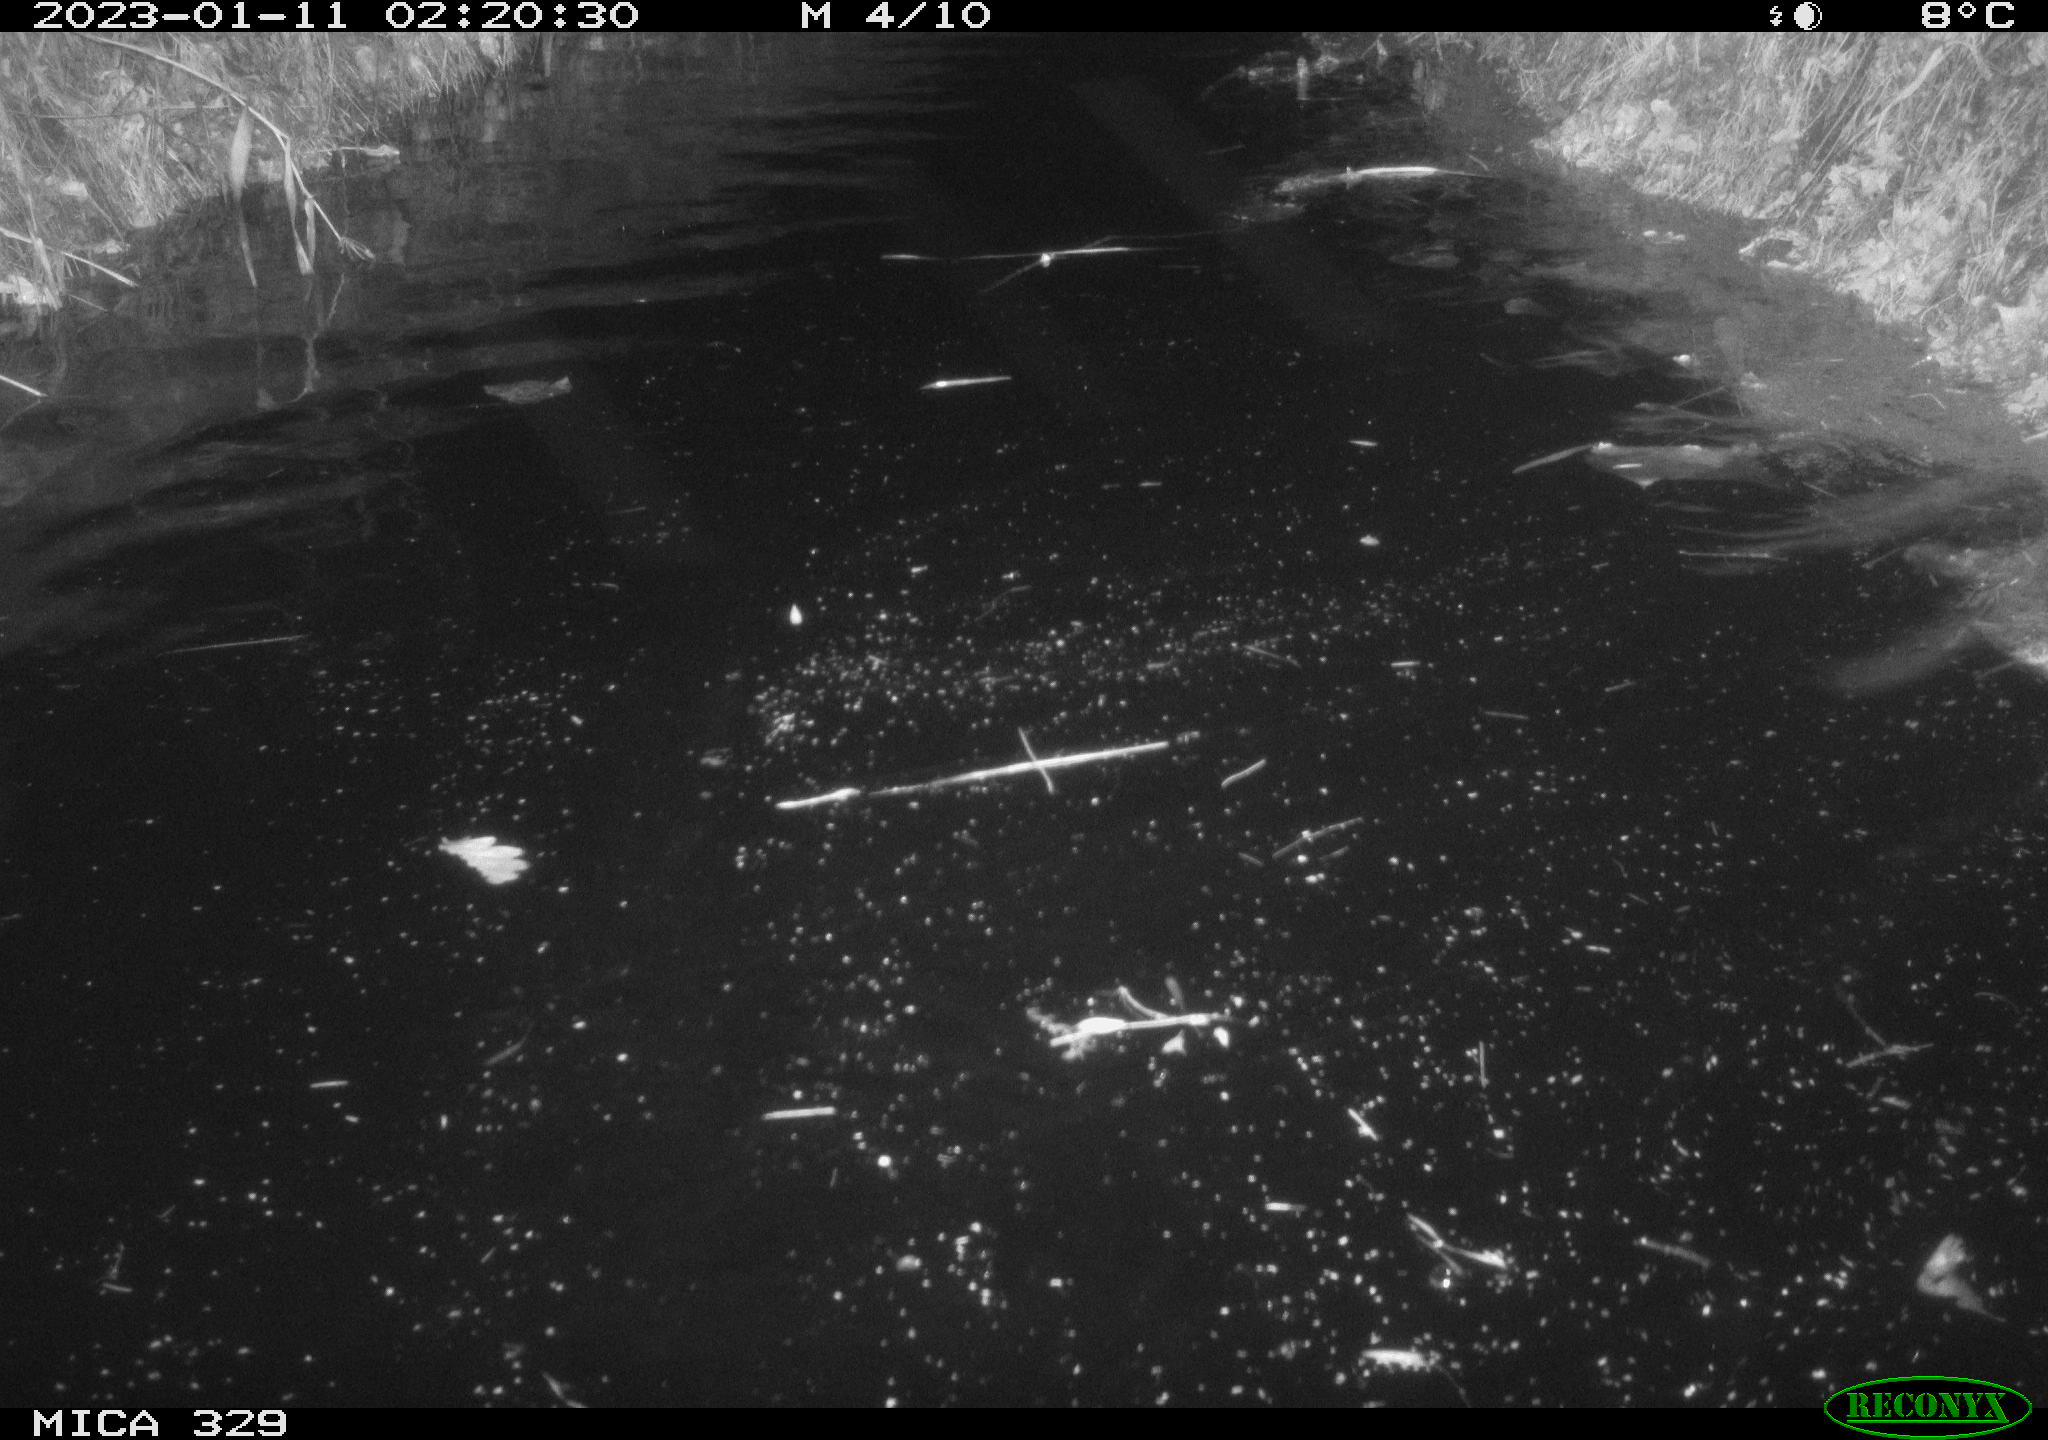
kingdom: Animalia
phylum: Chordata
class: Mammalia
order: Rodentia
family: Cricetidae
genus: Ondatra
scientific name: Ondatra zibethicus
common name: Muskrat
